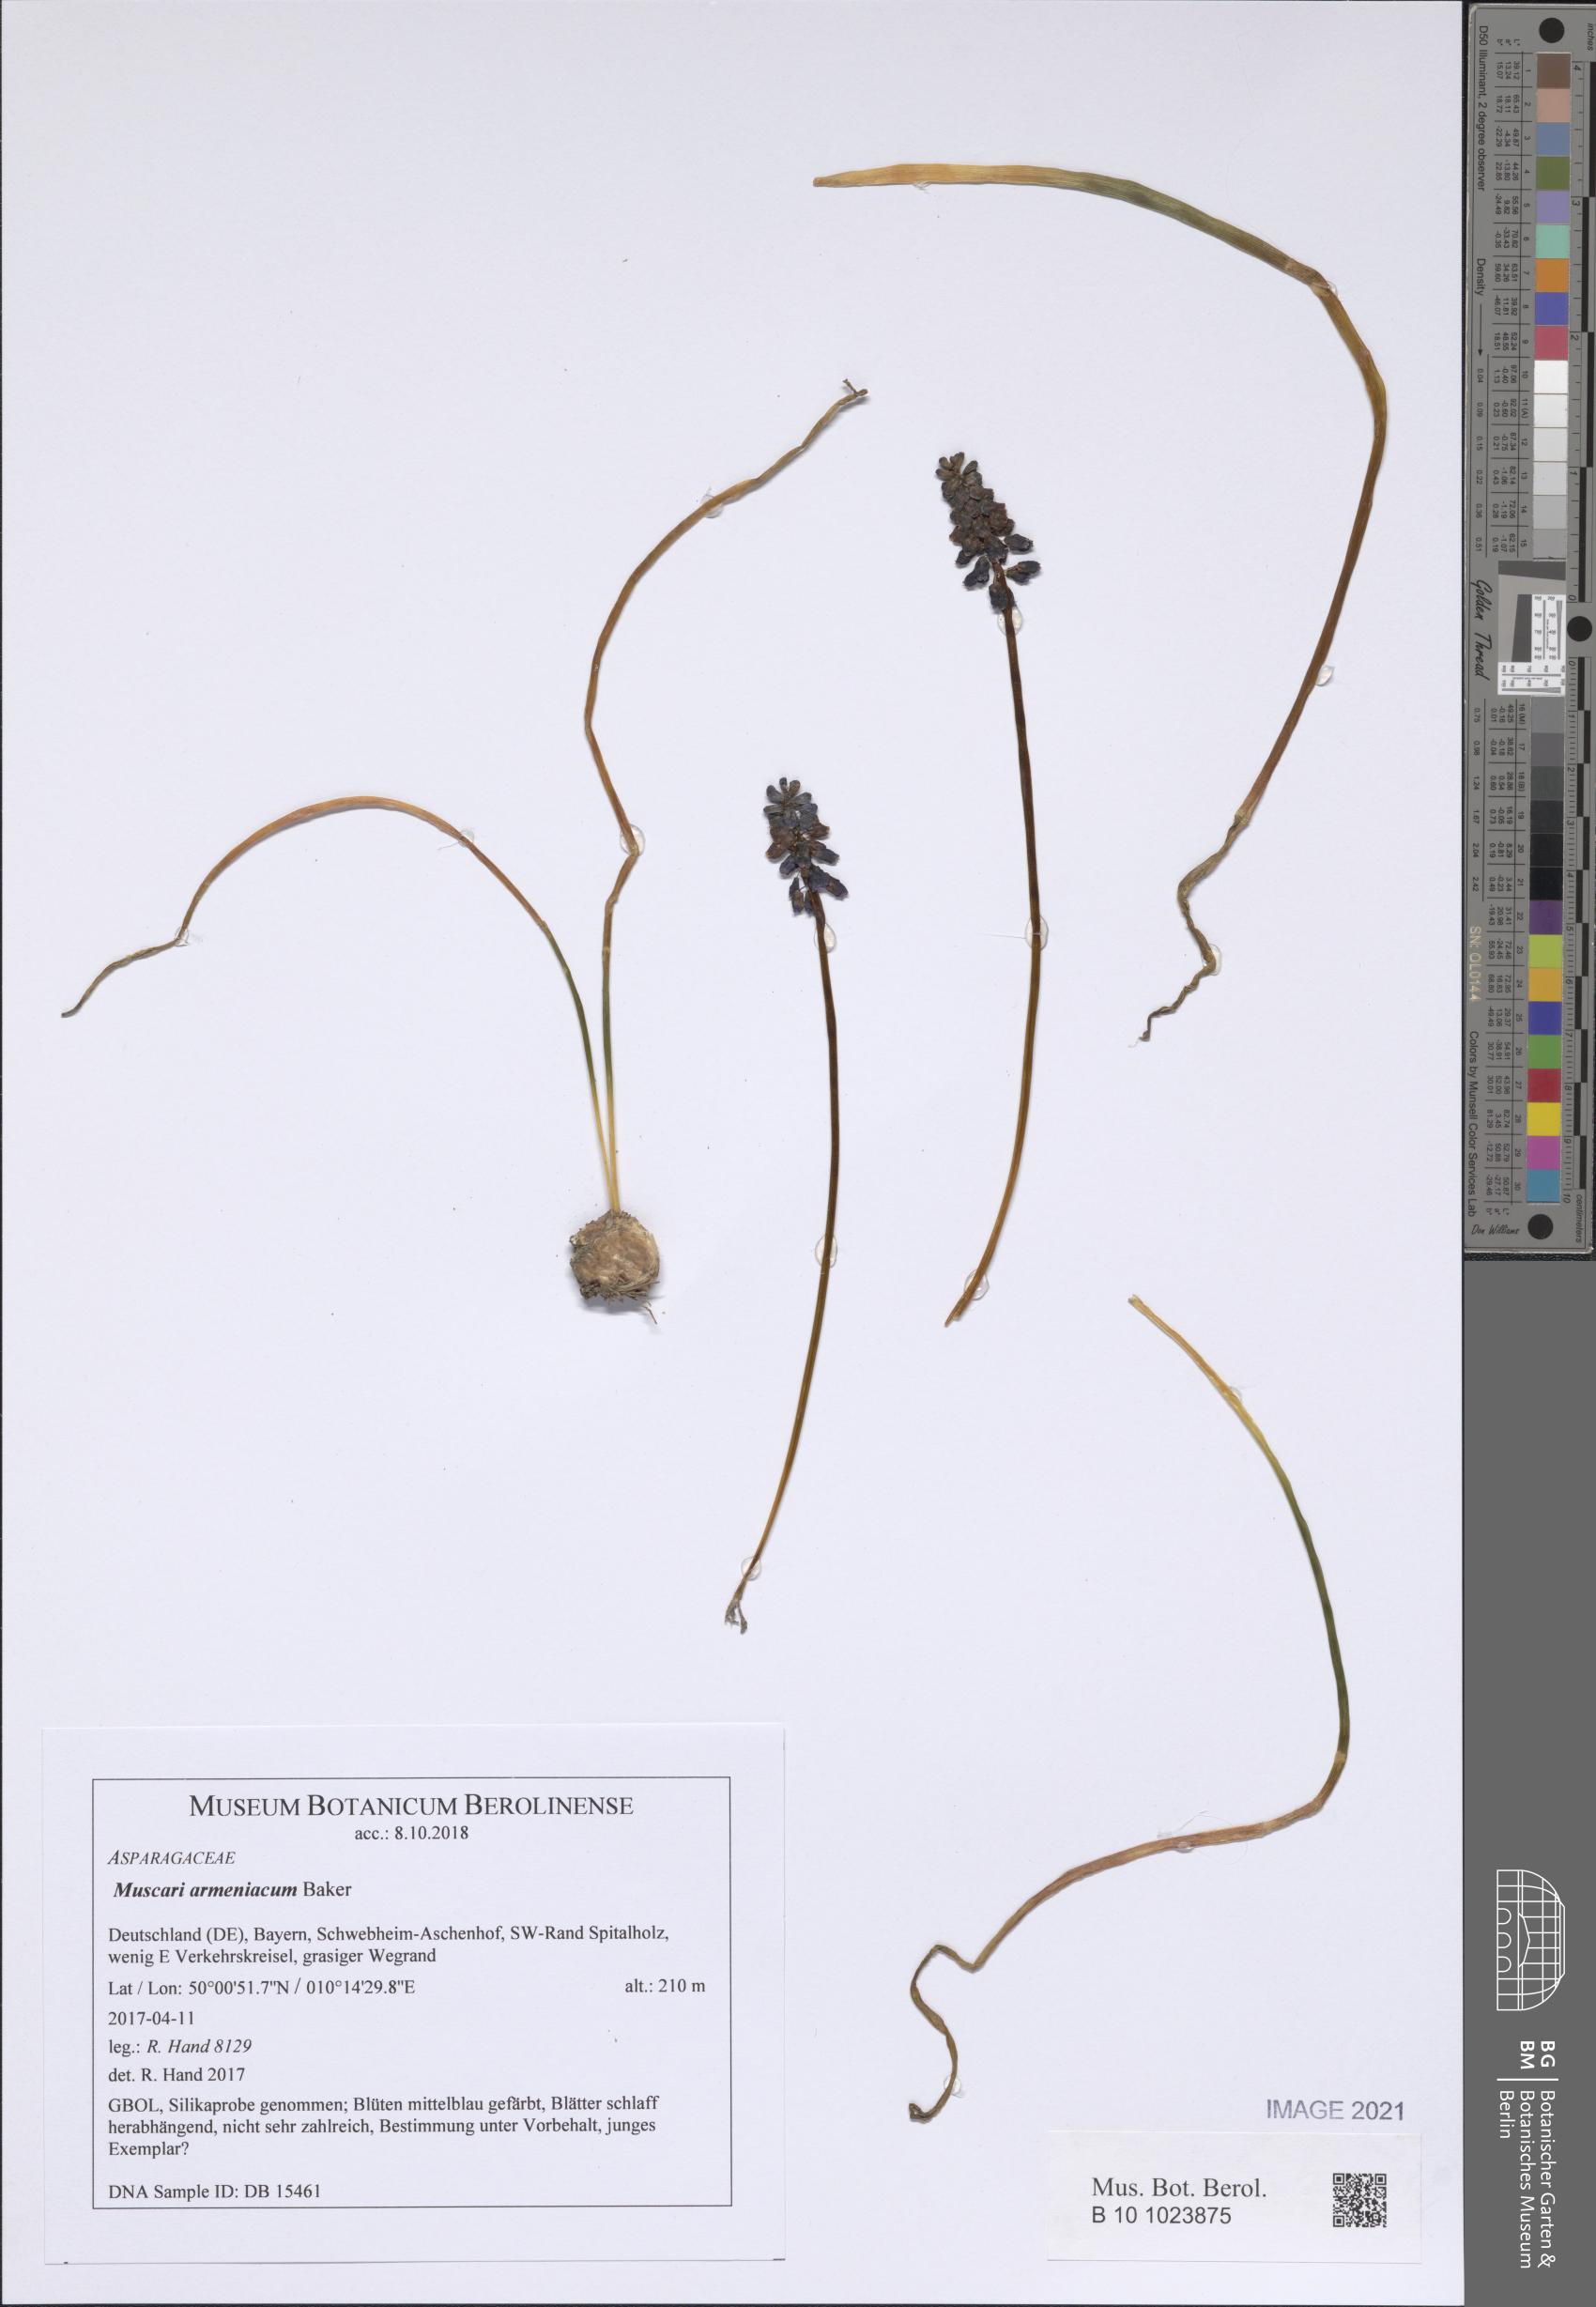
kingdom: Plantae
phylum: Tracheophyta
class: Liliopsida
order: Asparagales
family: Asparagaceae
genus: Muscari
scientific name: Muscari armeniacum
